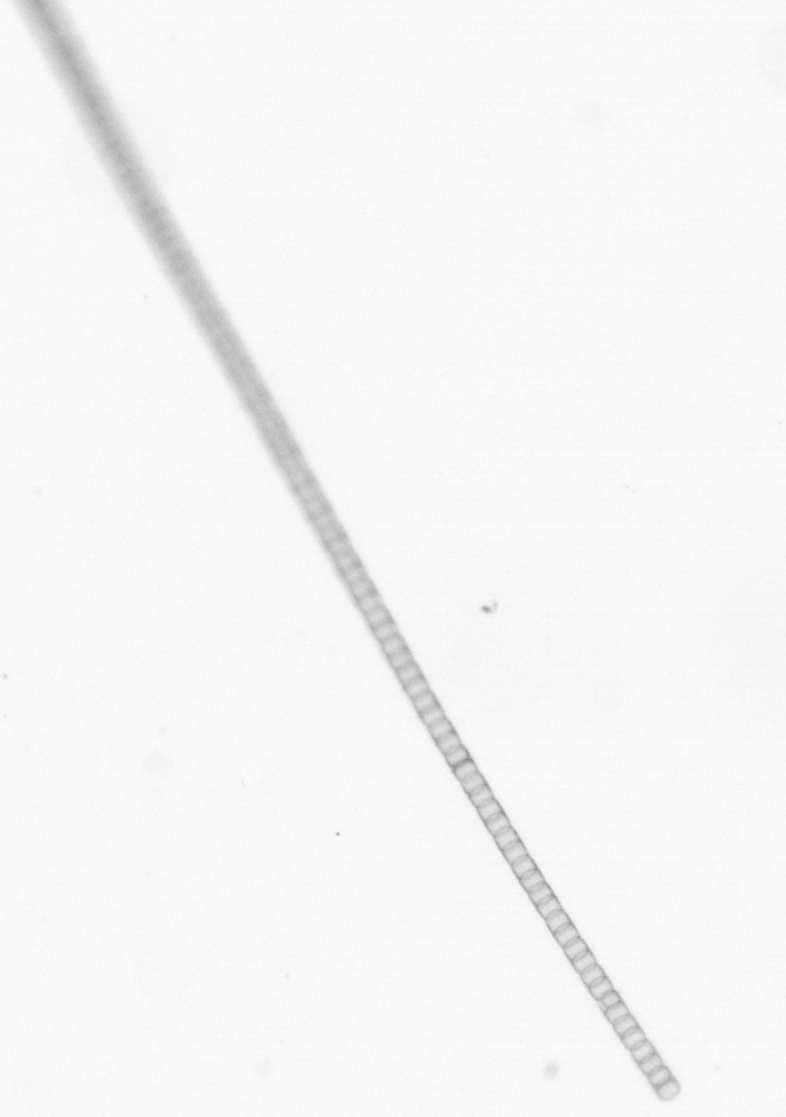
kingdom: Chromista
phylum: Ochrophyta
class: Bacillariophyceae
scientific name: Bacillariophyceae
